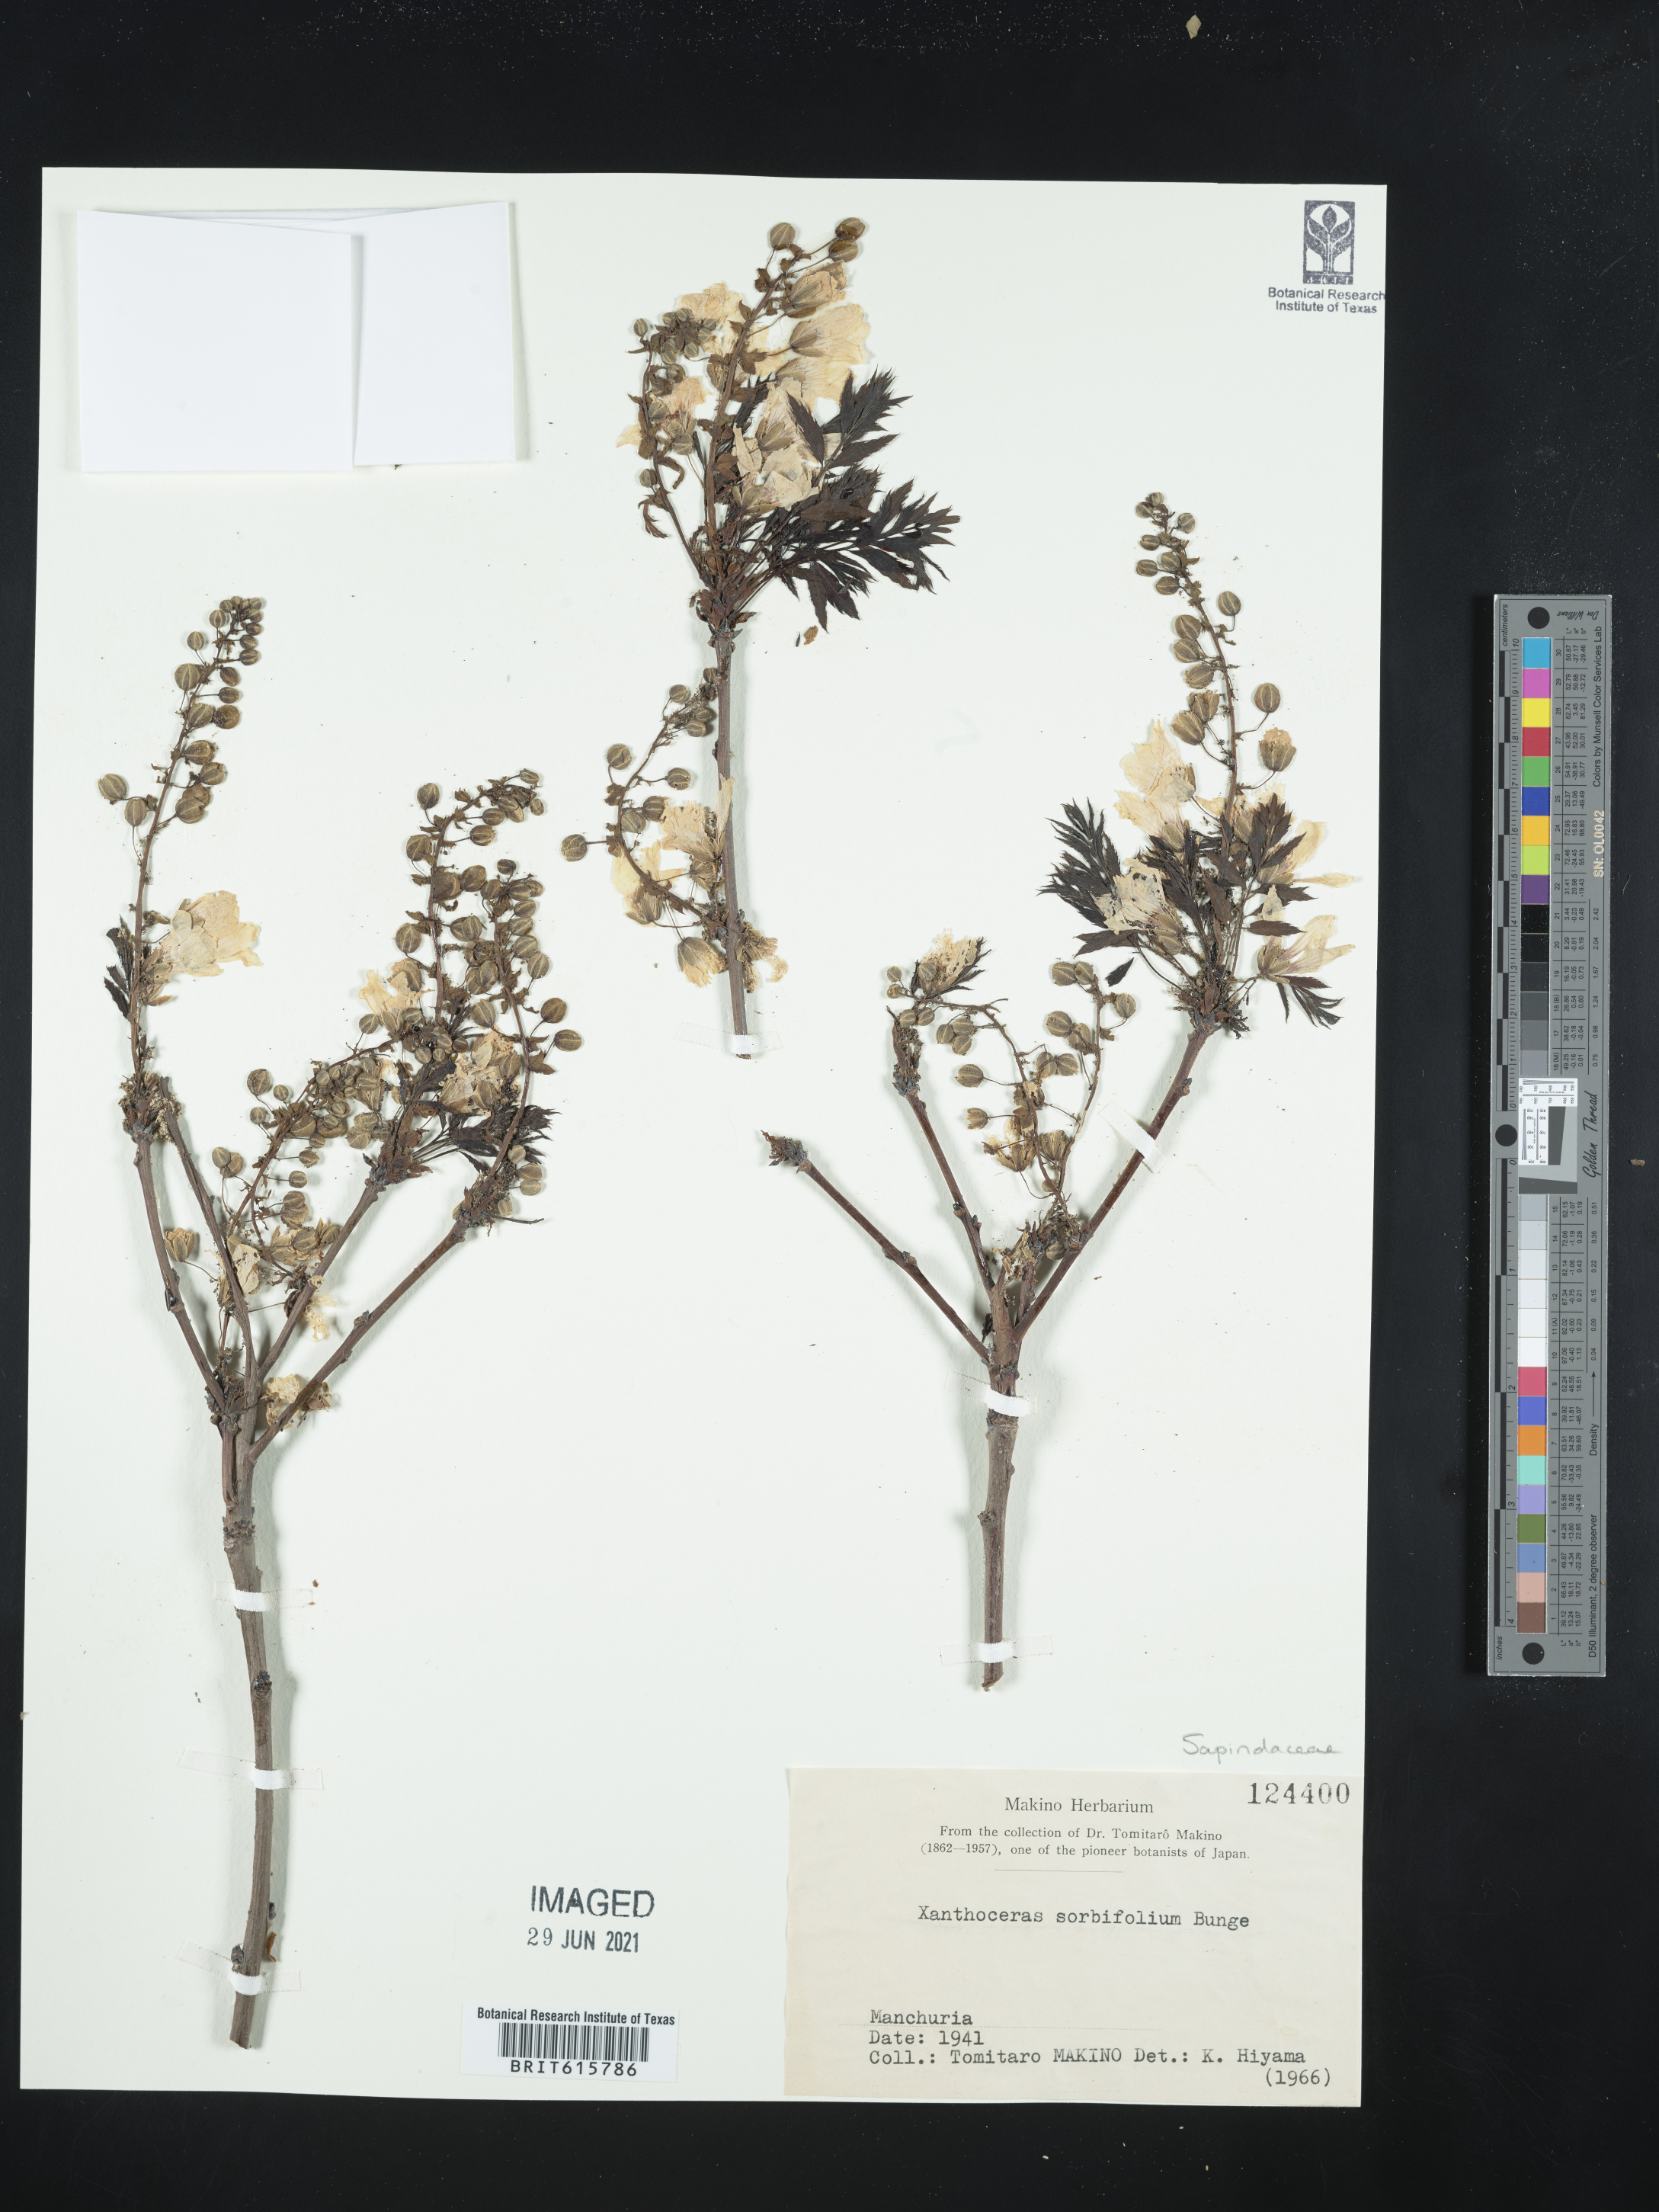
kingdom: Plantae
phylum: Tracheophyta
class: Magnoliopsida
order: Sapindales
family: Sapindaceae
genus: Xanthoceras
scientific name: Xanthoceras sorbifolia
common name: Yellow-horn
